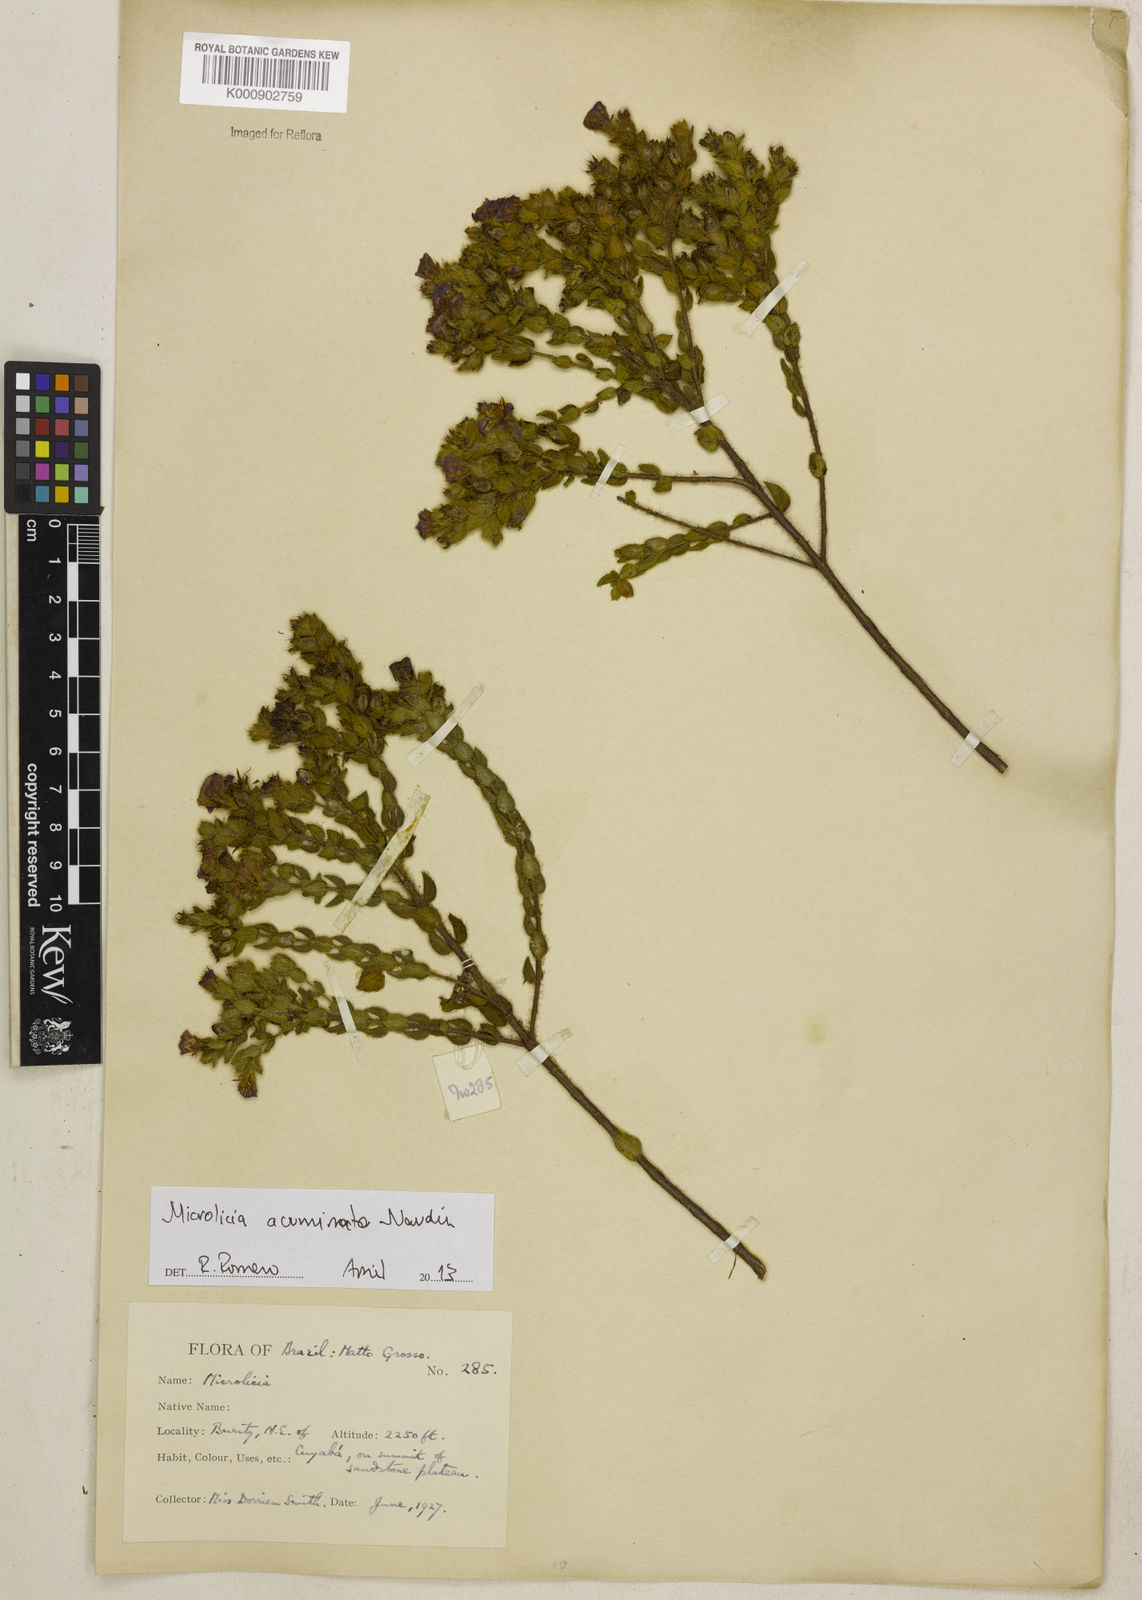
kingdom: Plantae
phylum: Tracheophyta
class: Magnoliopsida
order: Myrtales
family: Melastomataceae
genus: Microlicia
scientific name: Microlicia
